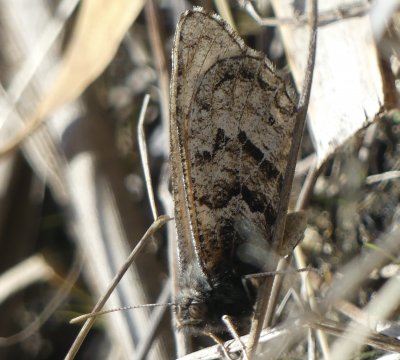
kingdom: Animalia
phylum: Arthropoda
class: Insecta
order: Lepidoptera
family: Nymphalidae
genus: Oeneis
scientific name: Oeneis alberta
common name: Alberta Arctic
